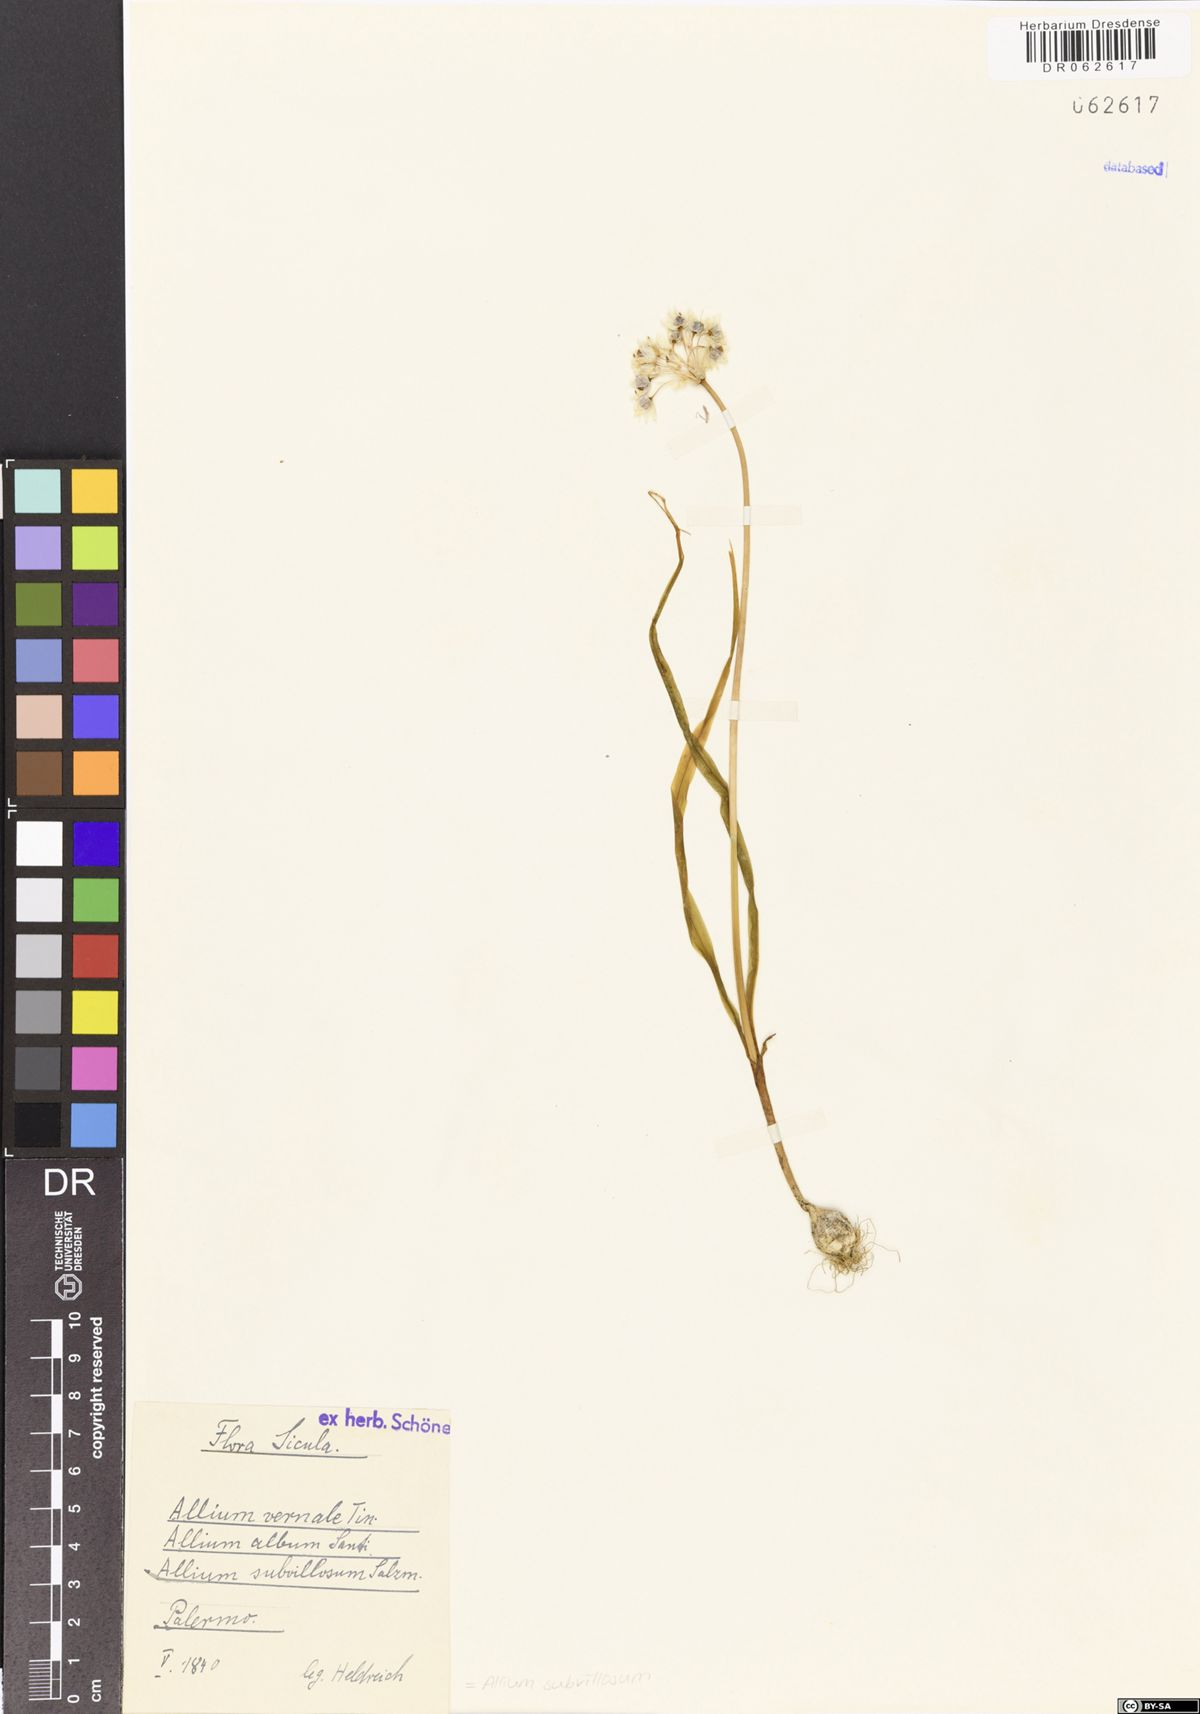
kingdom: Plantae
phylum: Tracheophyta
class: Liliopsida
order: Asparagales
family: Amaryllidaceae
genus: Allium
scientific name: Allium subvillosum
